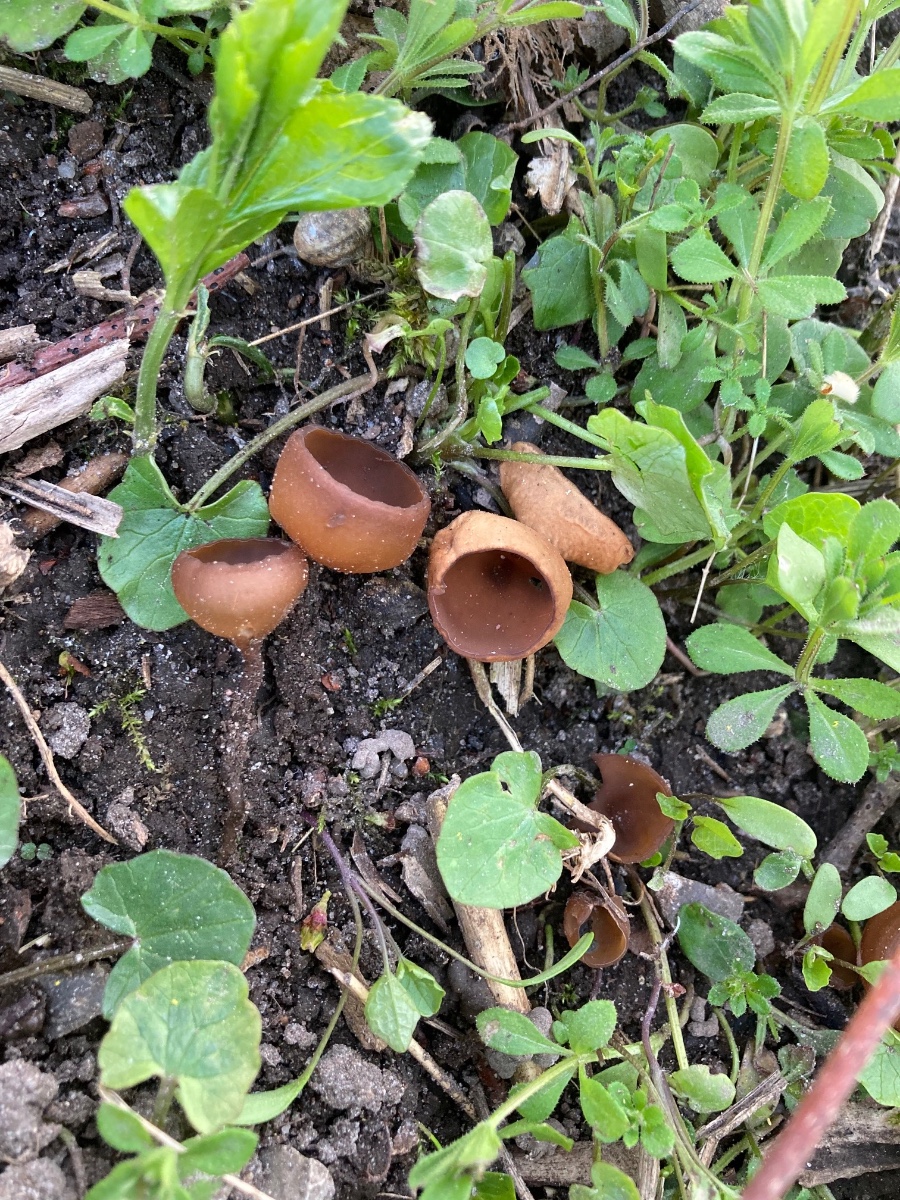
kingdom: Fungi
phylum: Ascomycota
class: Leotiomycetes
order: Helotiales
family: Sclerotiniaceae
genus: Dumontinia
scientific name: Dumontinia tuberosa
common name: anemone-knoldskive
